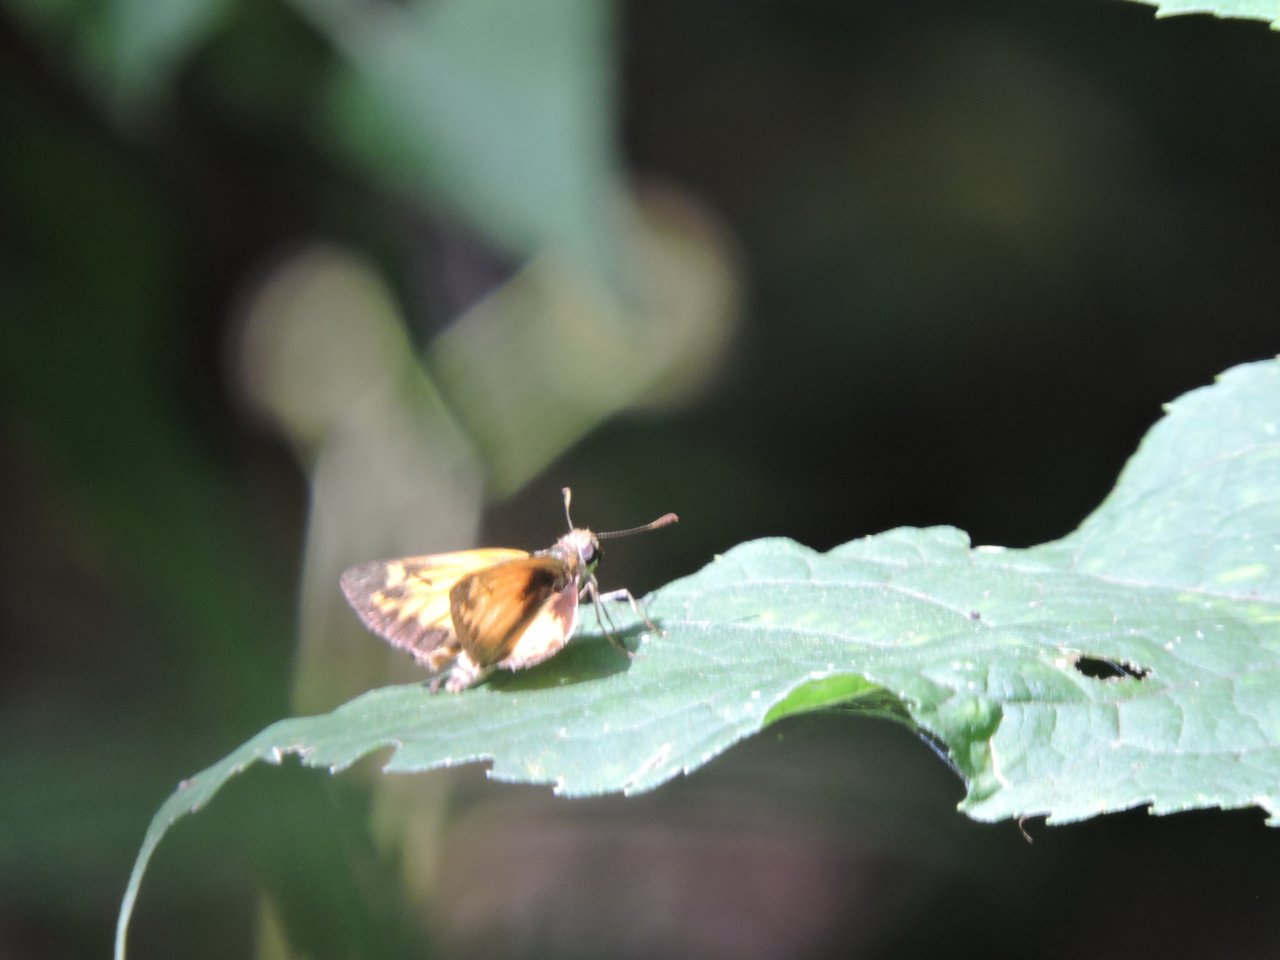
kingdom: Animalia
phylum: Arthropoda
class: Insecta
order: Lepidoptera
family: Hesperiidae
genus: Hylephila
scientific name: Hylephila phyleus
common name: Fiery Skipper
